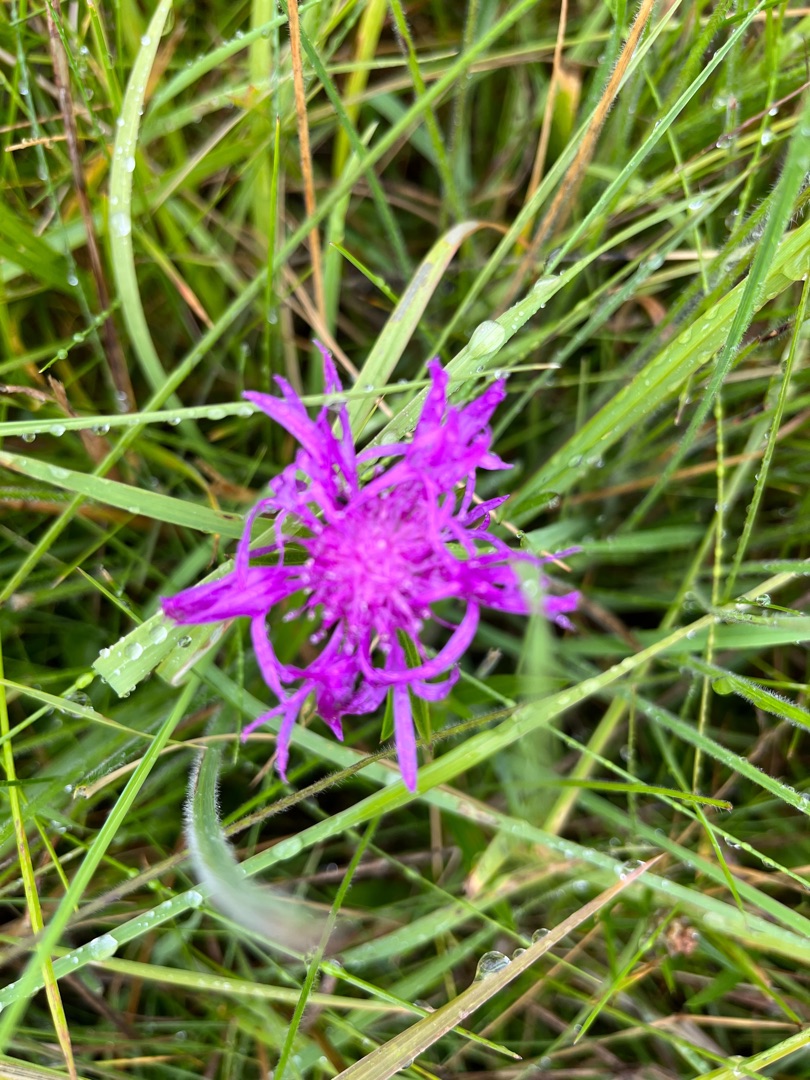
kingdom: Plantae
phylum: Tracheophyta
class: Magnoliopsida
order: Asterales
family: Asteraceae
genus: Centaurea
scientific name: Centaurea jacea
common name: Almindelig knopurt
